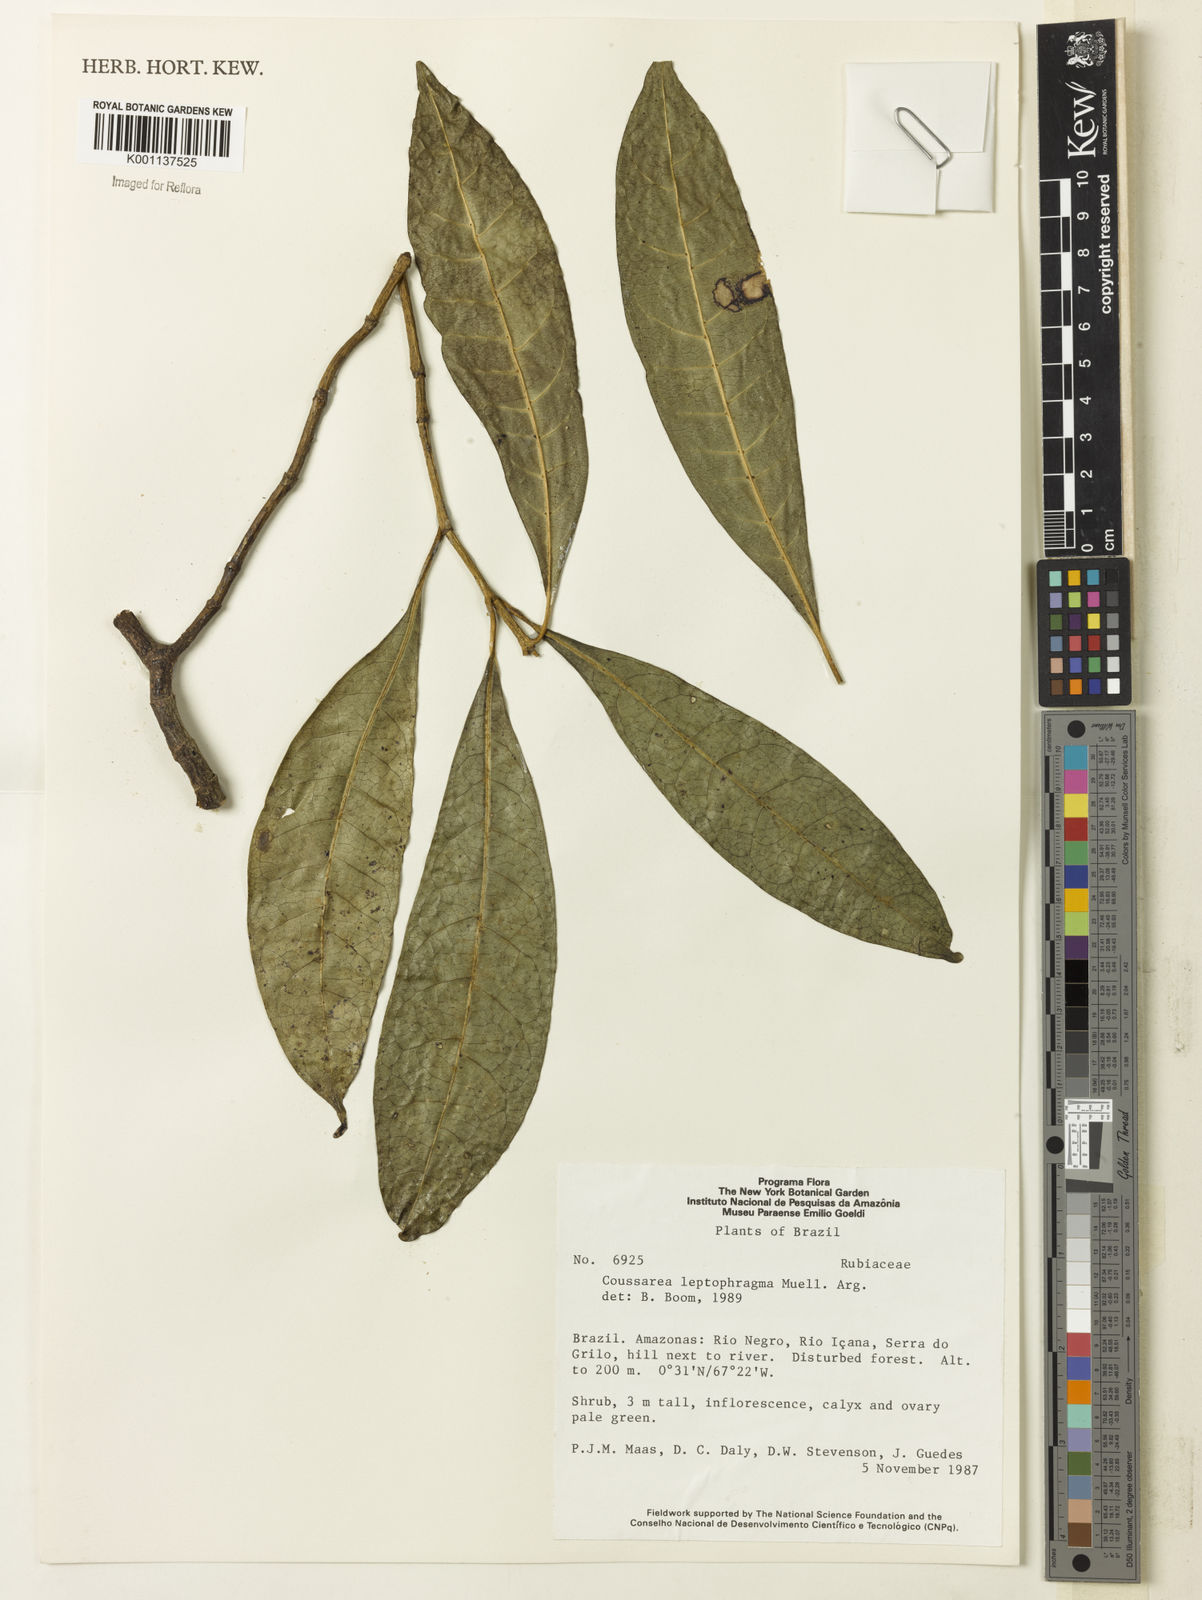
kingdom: Plantae
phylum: Tracheophyta
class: Magnoliopsida
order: Gentianales
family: Rubiaceae
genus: Coussarea
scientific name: Coussarea
